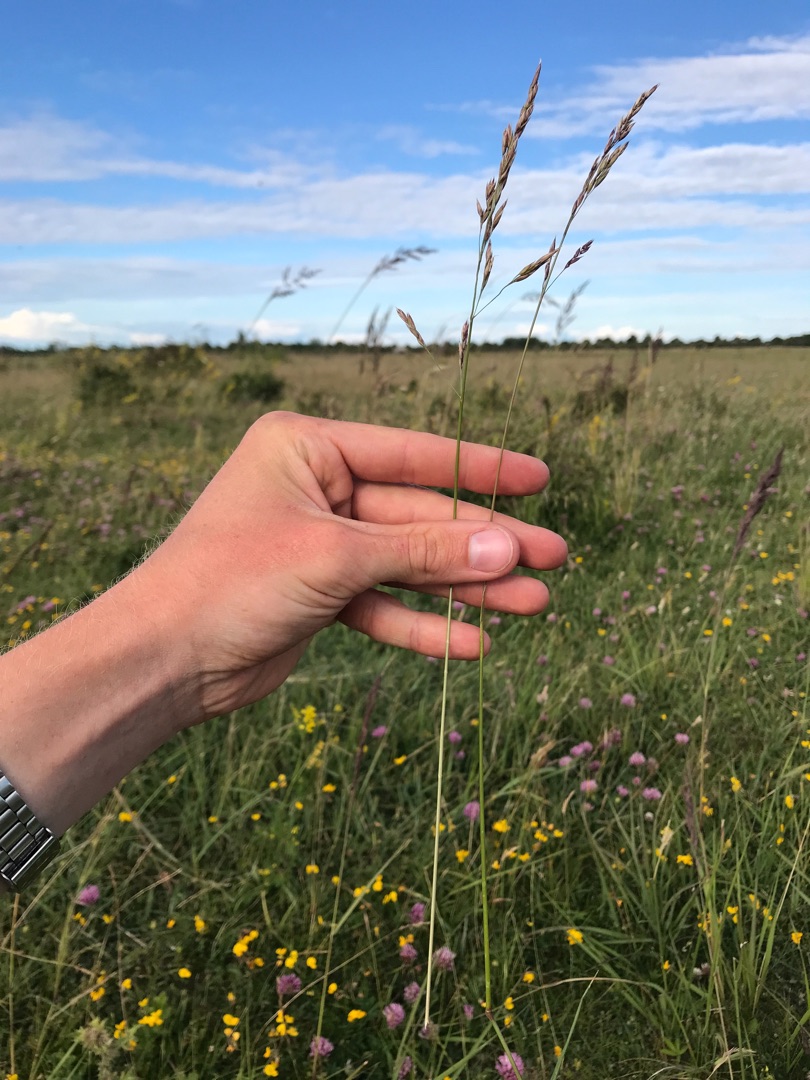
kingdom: Plantae
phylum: Tracheophyta
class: Liliopsida
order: Poales
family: Poaceae
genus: Lolium
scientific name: Lolium pratense
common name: Eng-svingel
